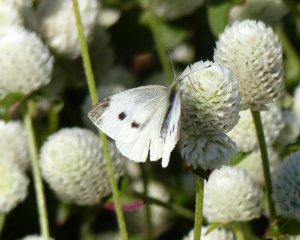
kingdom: Animalia
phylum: Arthropoda
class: Insecta
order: Lepidoptera
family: Pieridae
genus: Pieris
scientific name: Pieris rapae
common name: Cabbage White
